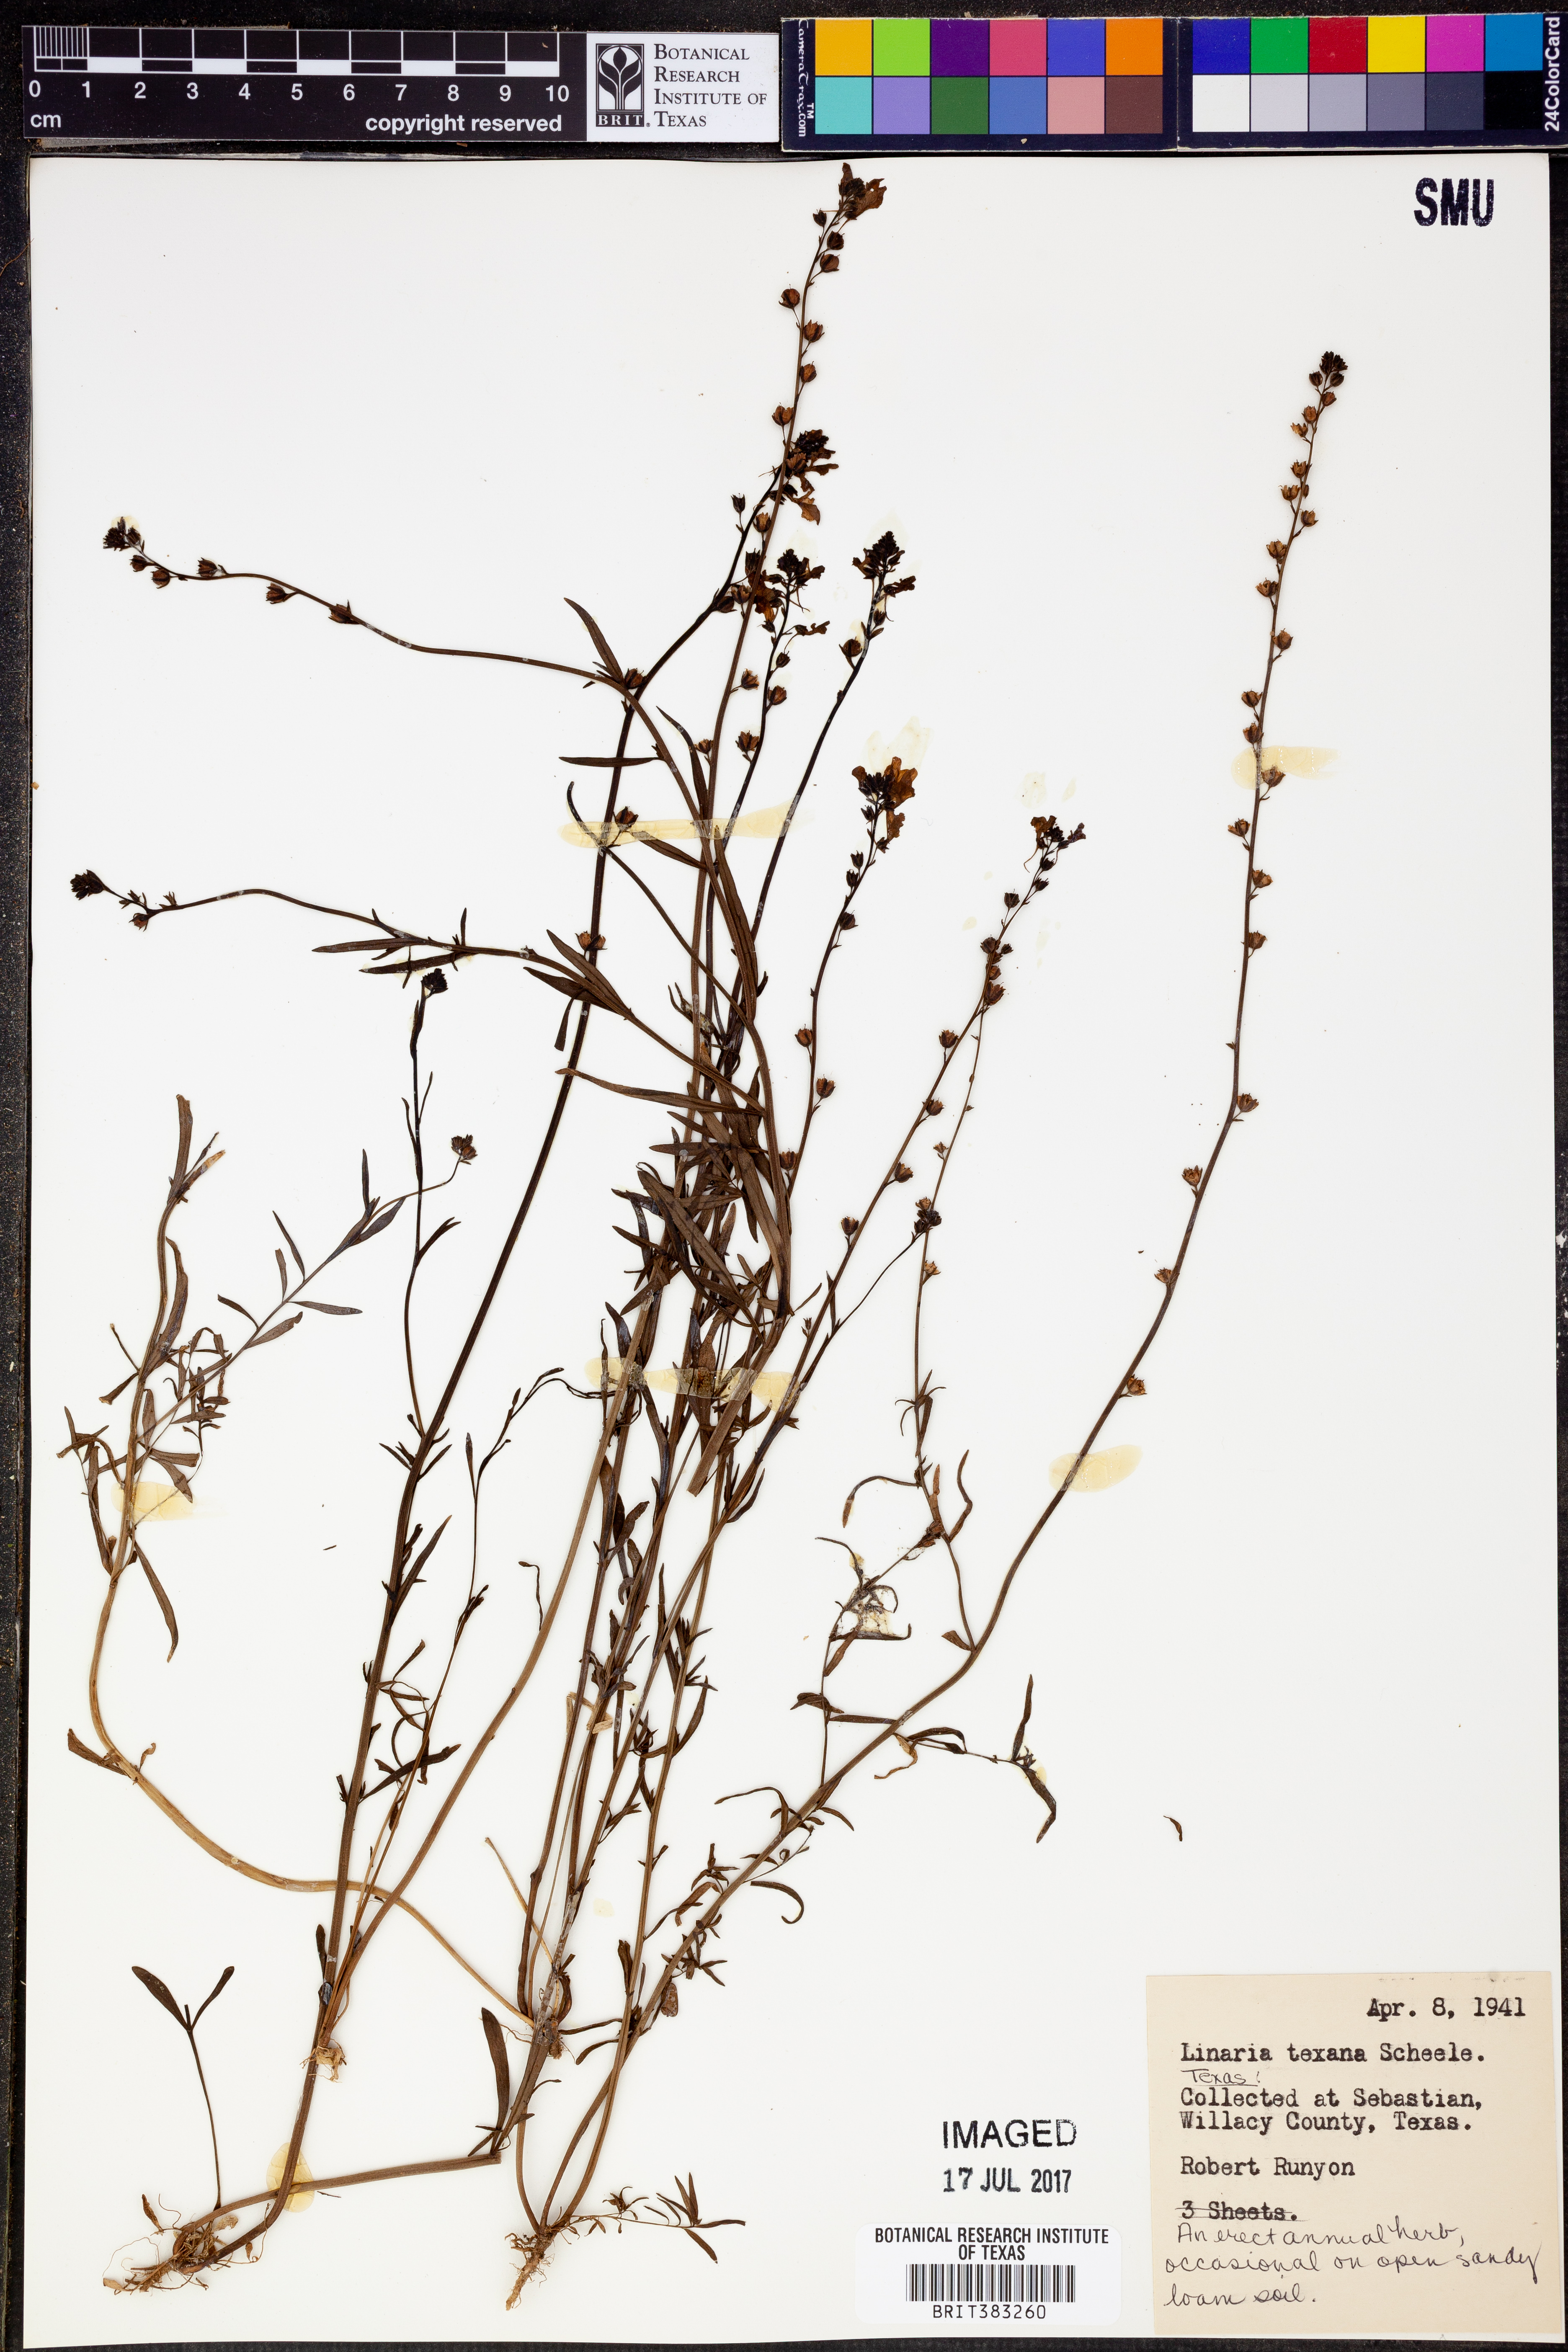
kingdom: Plantae
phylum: Tracheophyta
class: Magnoliopsida
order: Lamiales
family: Plantaginaceae
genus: Nuttallanthus
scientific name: Nuttallanthus texanus
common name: Texas toadflax
